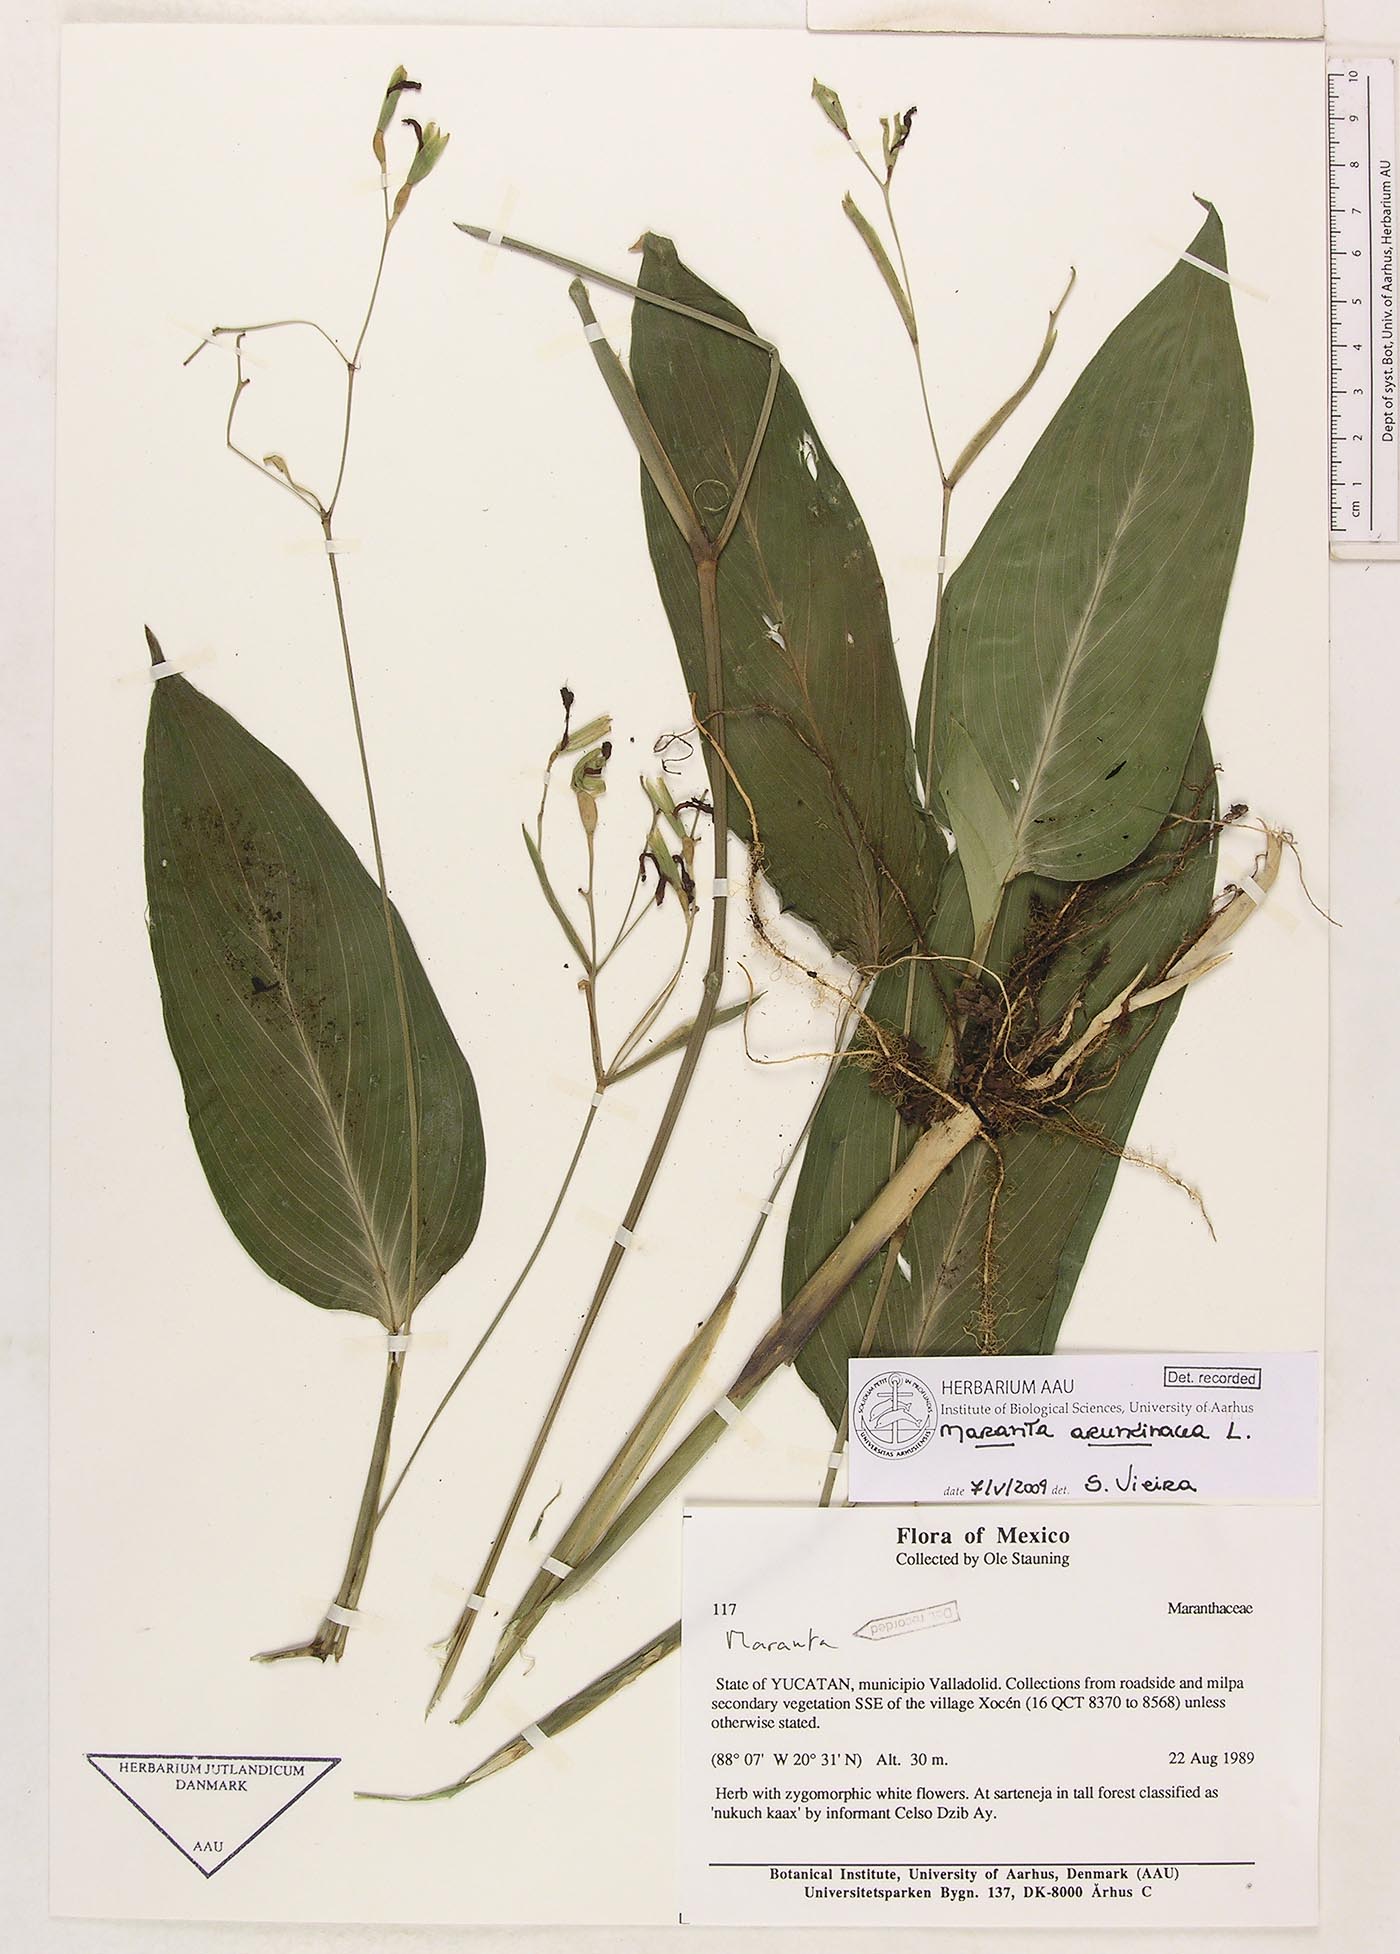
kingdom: Plantae
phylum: Tracheophyta
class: Liliopsida
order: Zingiberales
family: Marantaceae
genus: Maranta
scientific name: Maranta arundinacea
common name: Arrowroot
